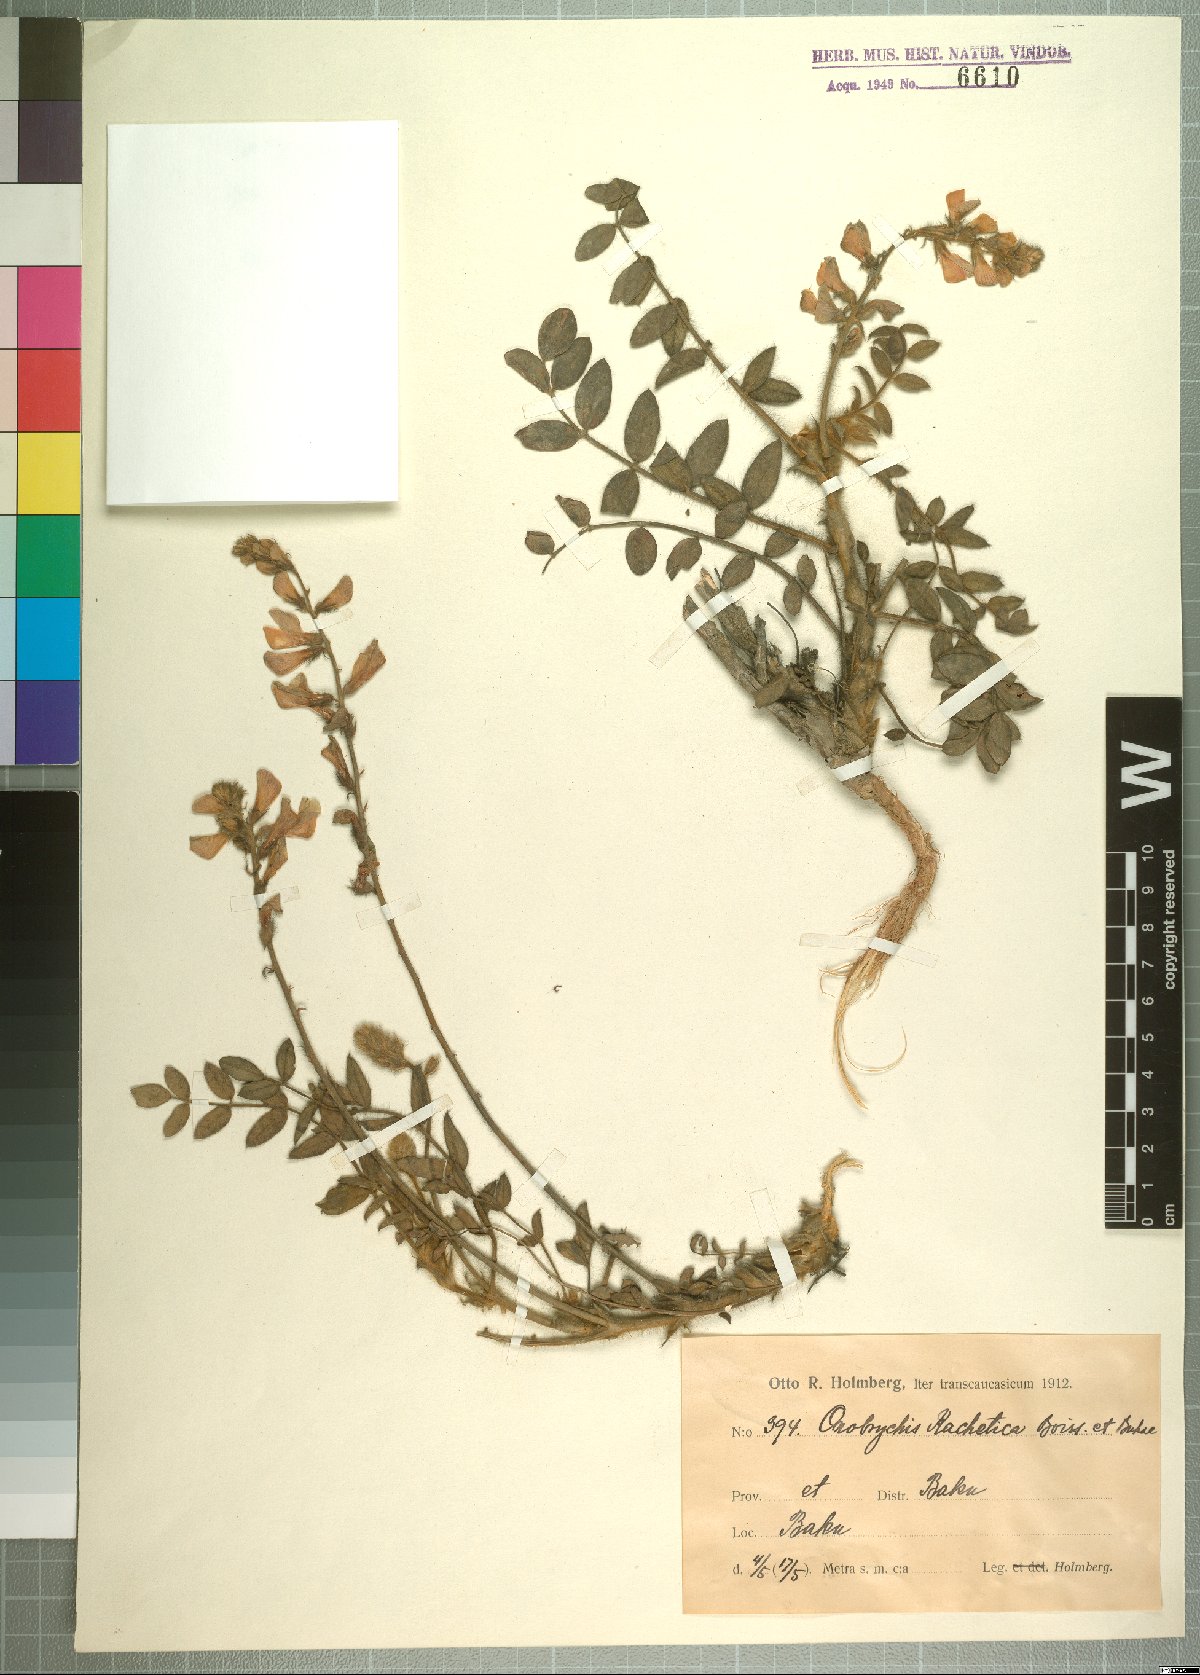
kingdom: Plantae
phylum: Tracheophyta
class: Magnoliopsida
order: Fabales
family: Fabaceae
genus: Onobrychis
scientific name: Onobrychis bakuensis
